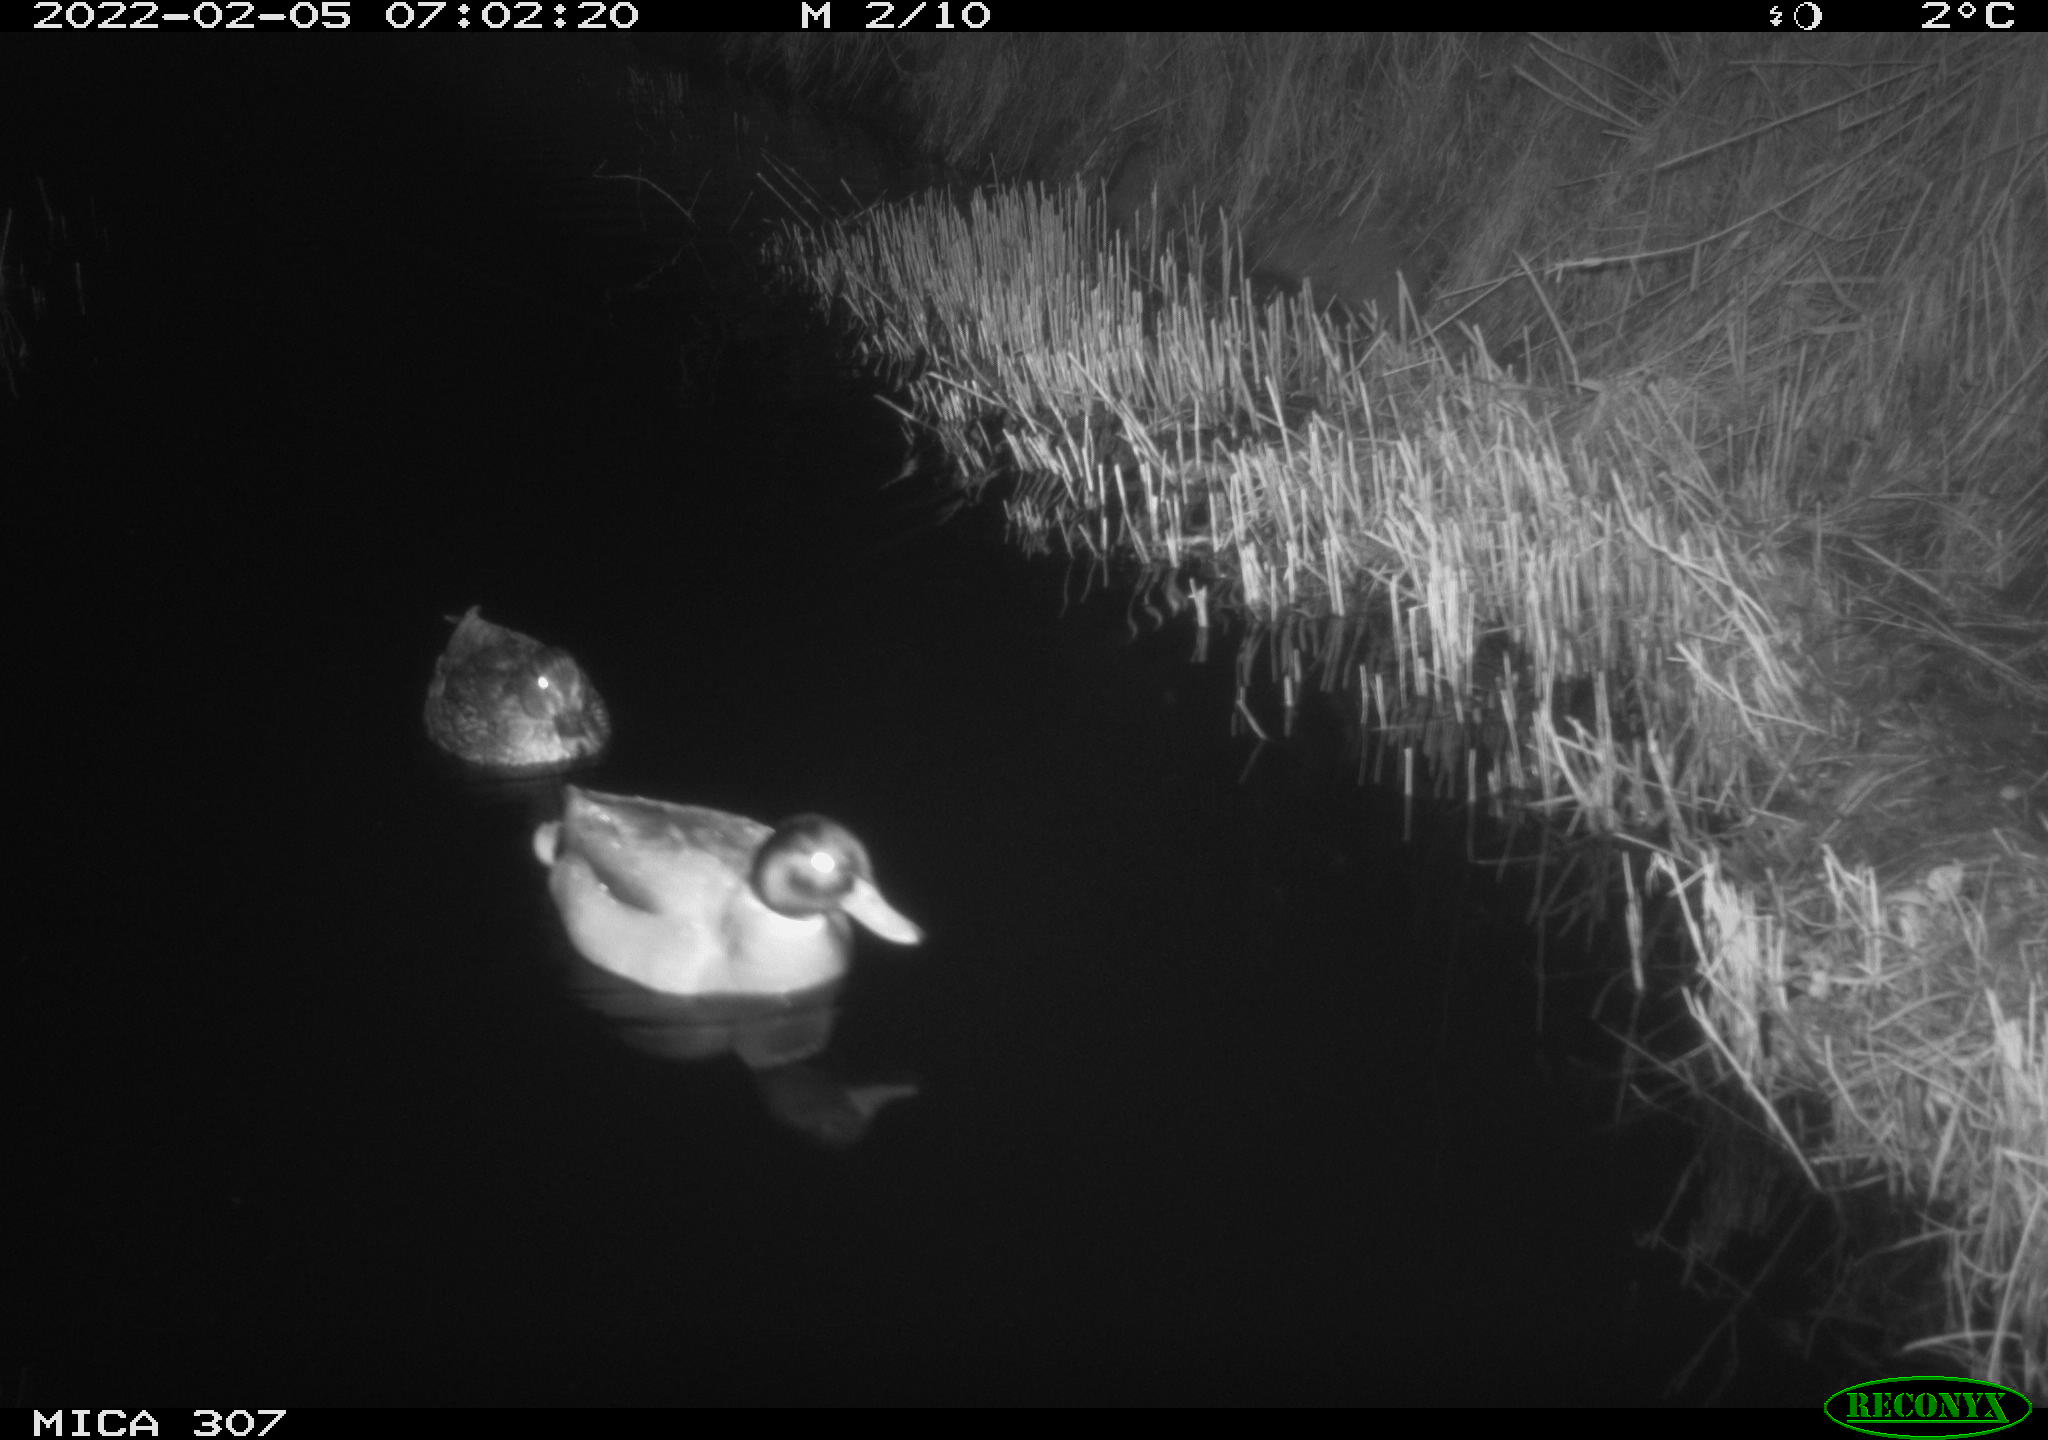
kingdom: Animalia
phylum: Chordata
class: Aves
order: Anseriformes
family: Anatidae
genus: Anas
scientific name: Anas platyrhynchos
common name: Mallard
